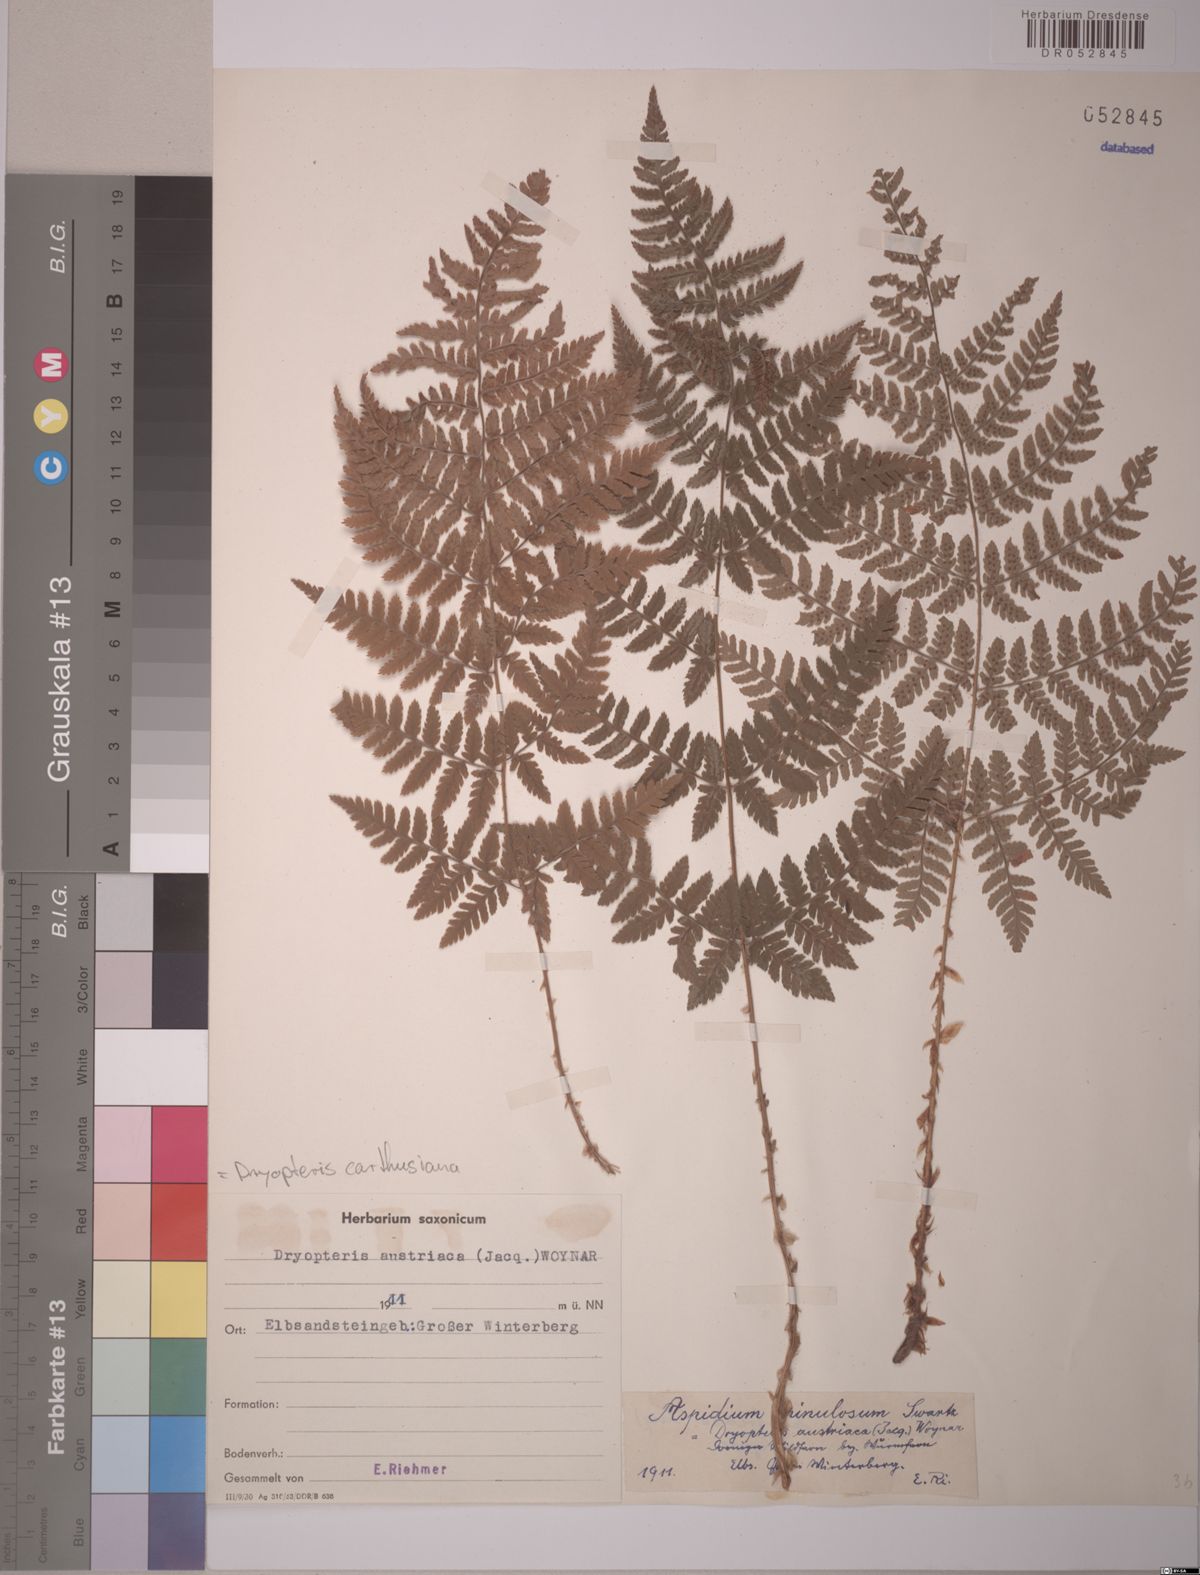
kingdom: Plantae
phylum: Tracheophyta
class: Polypodiopsida
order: Polypodiales
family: Dryopteridaceae
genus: Dryopteris
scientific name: Dryopteris carthusiana
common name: Narrow buckler-fern
